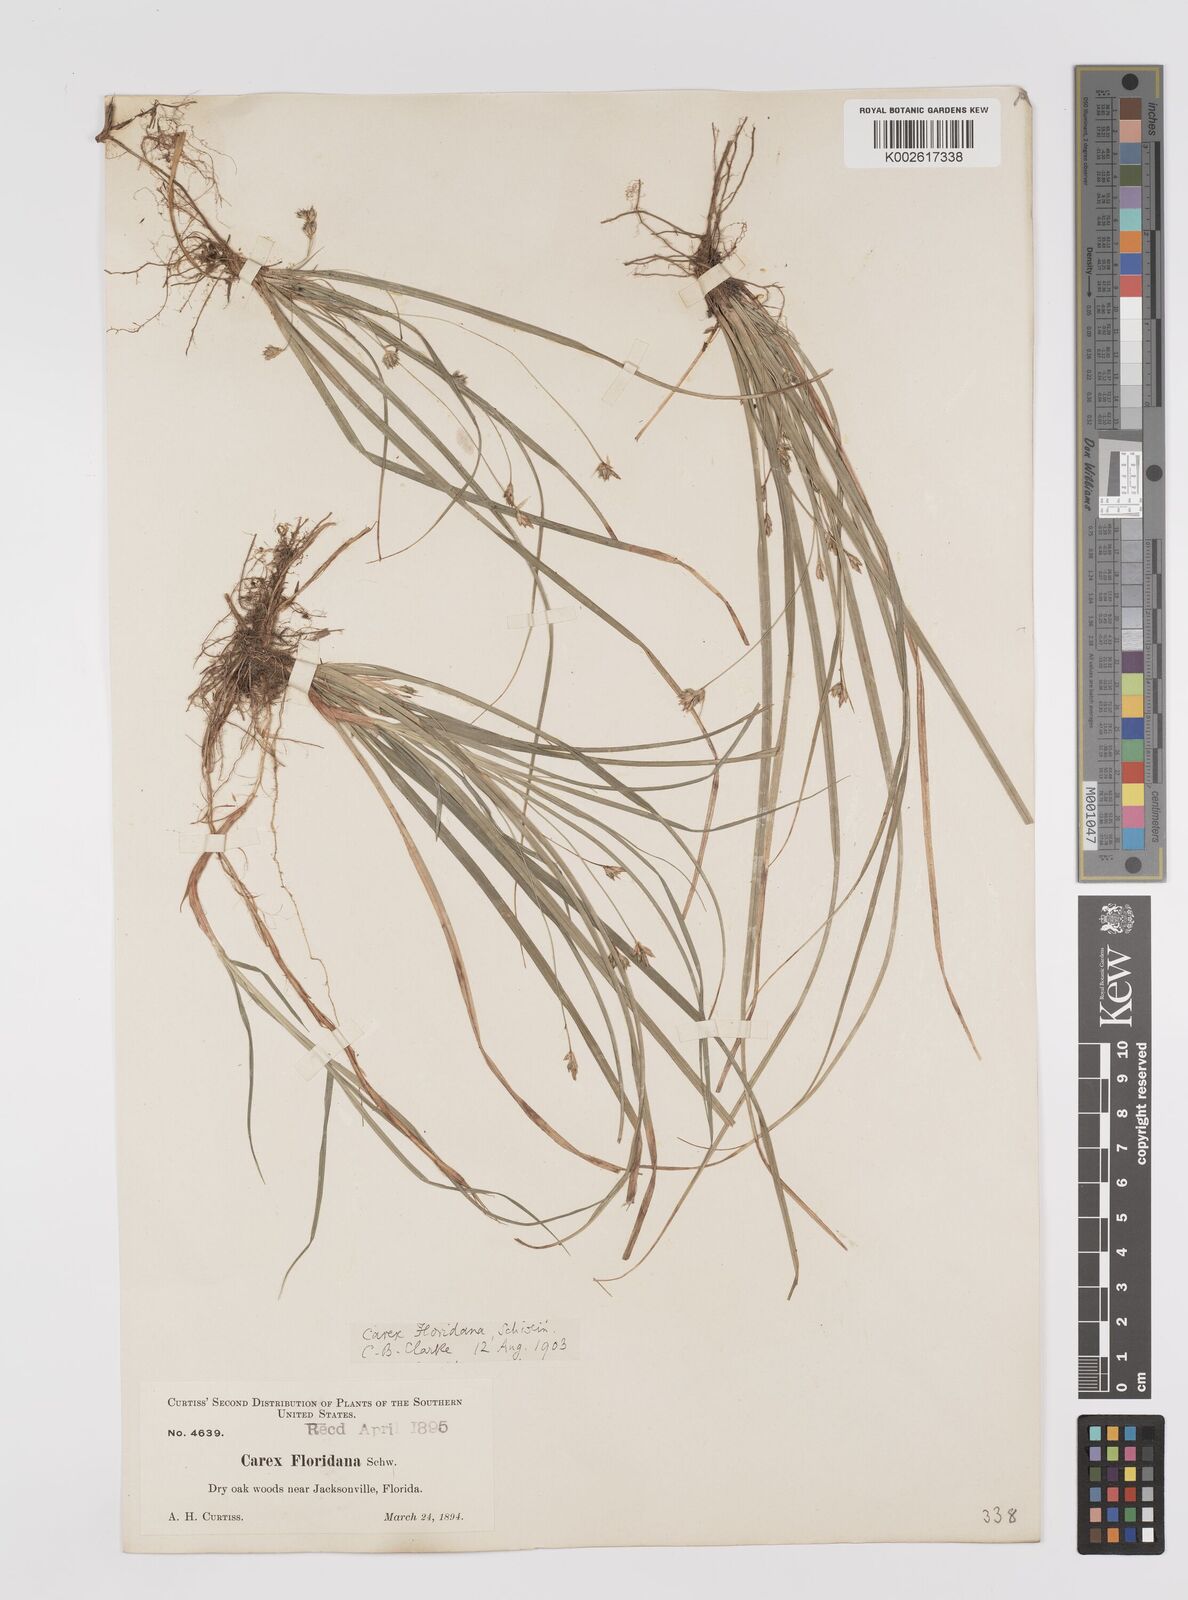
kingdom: Plantae
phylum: Tracheophyta
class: Liliopsida
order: Poales
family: Cyperaceae
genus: Carex
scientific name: Carex floridana
